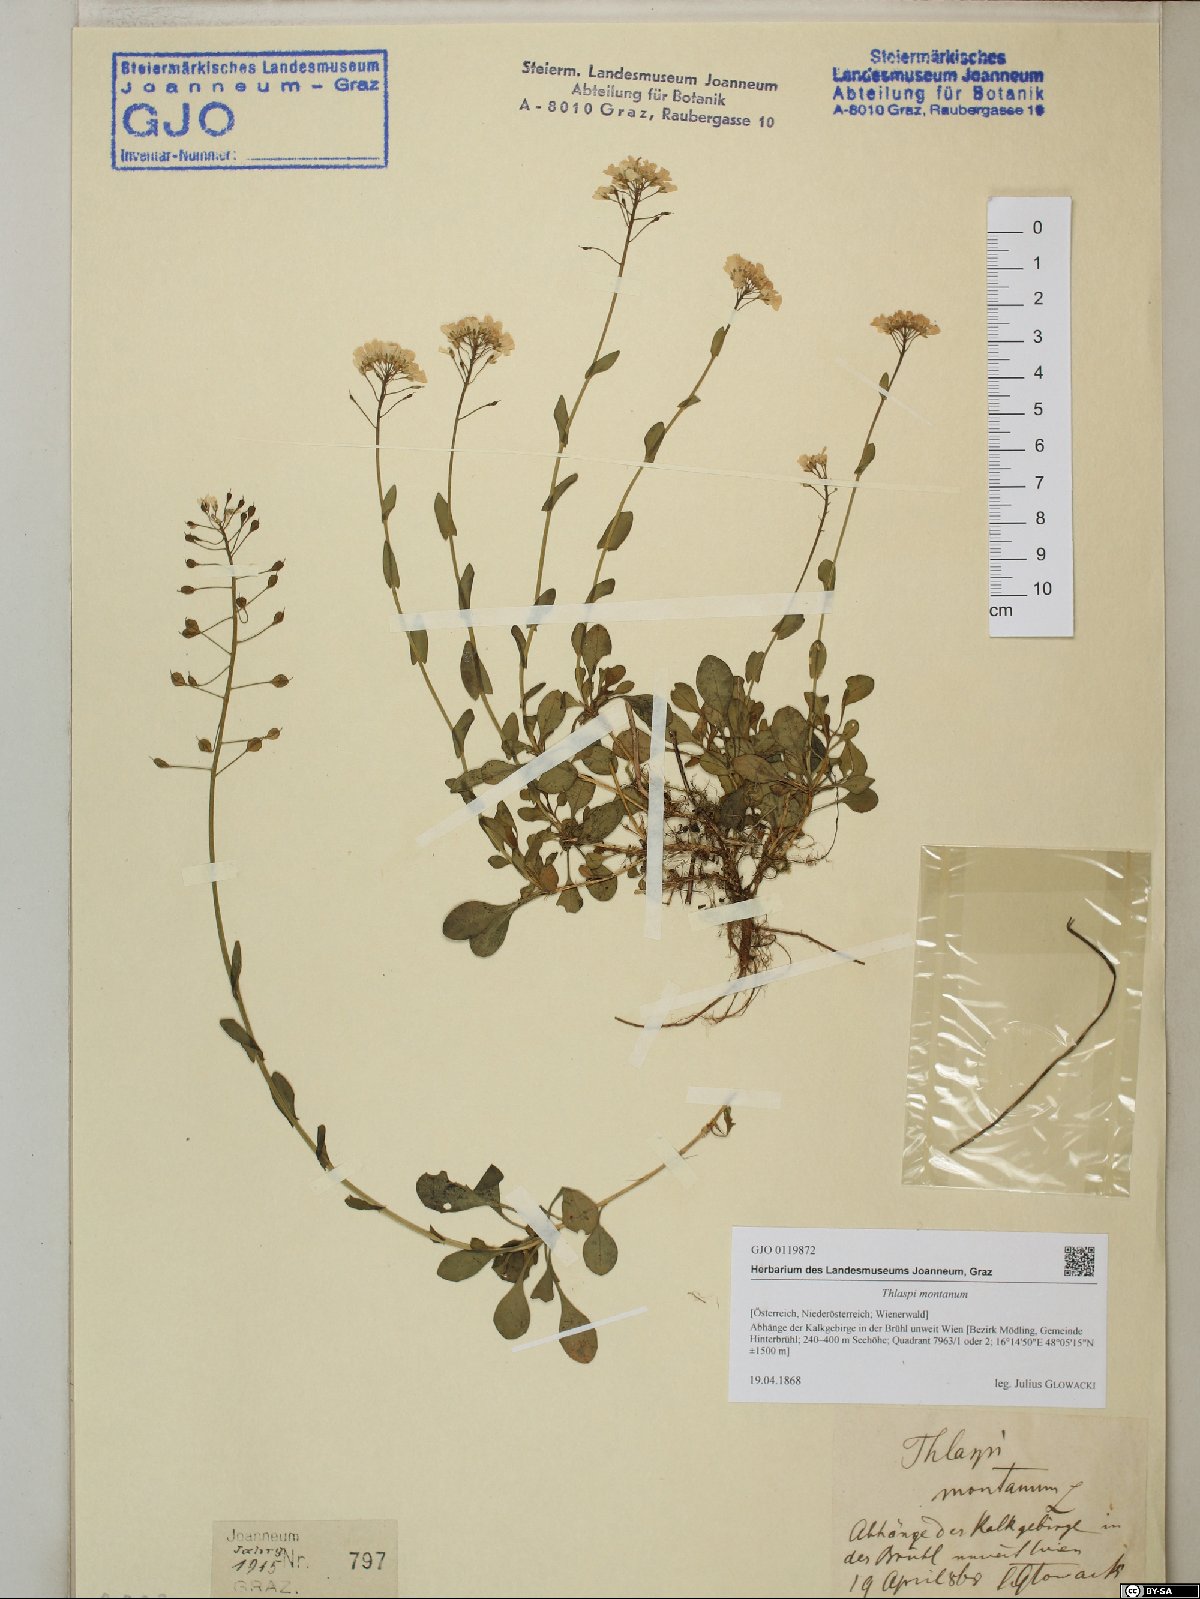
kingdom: Plantae
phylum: Tracheophyta
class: Magnoliopsida
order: Brassicales
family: Brassicaceae
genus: Noccaea
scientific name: Noccaea montana
